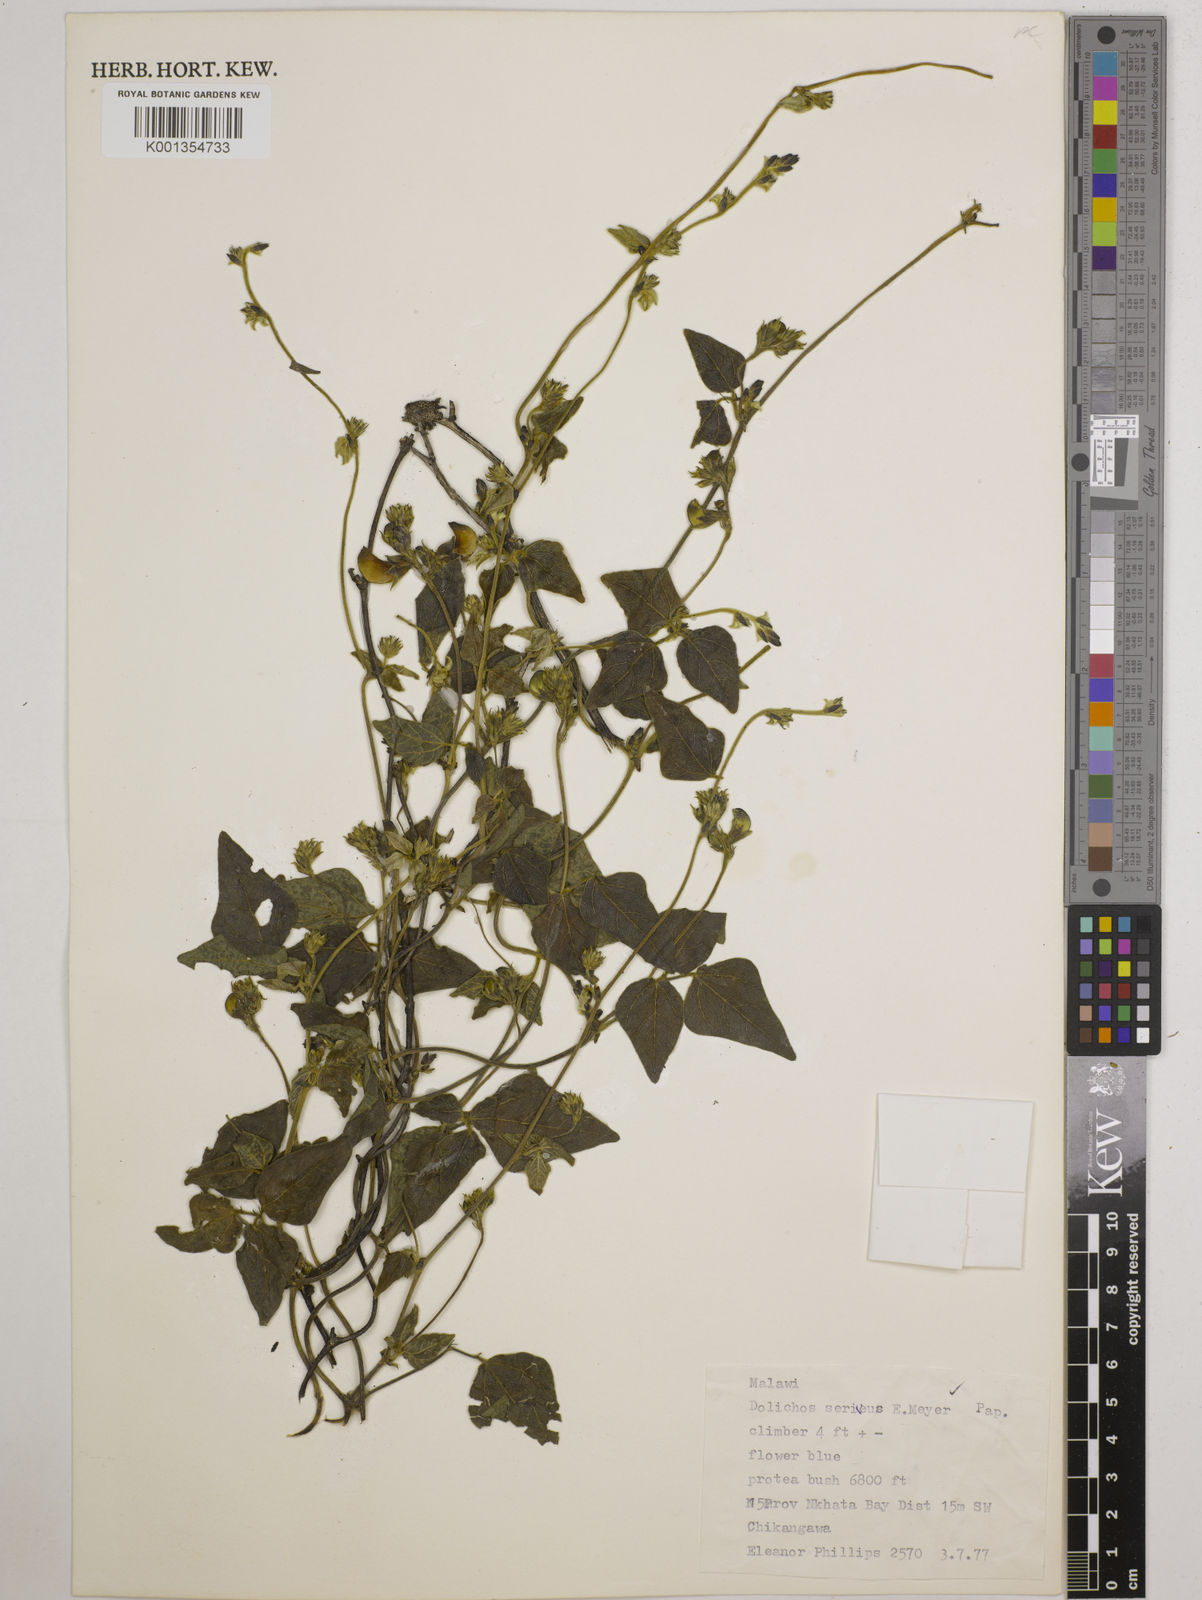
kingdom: Plantae
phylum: Tracheophyta
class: Magnoliopsida
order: Fabales
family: Fabaceae
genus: Dolichos
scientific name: Dolichos
